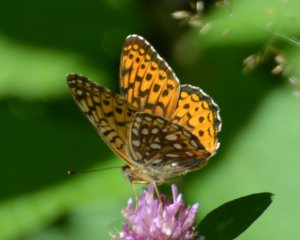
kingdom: Animalia
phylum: Arthropoda
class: Insecta
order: Lepidoptera
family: Nymphalidae
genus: Speyeria
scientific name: Speyeria atlantis
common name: Atlantis Fritillary
